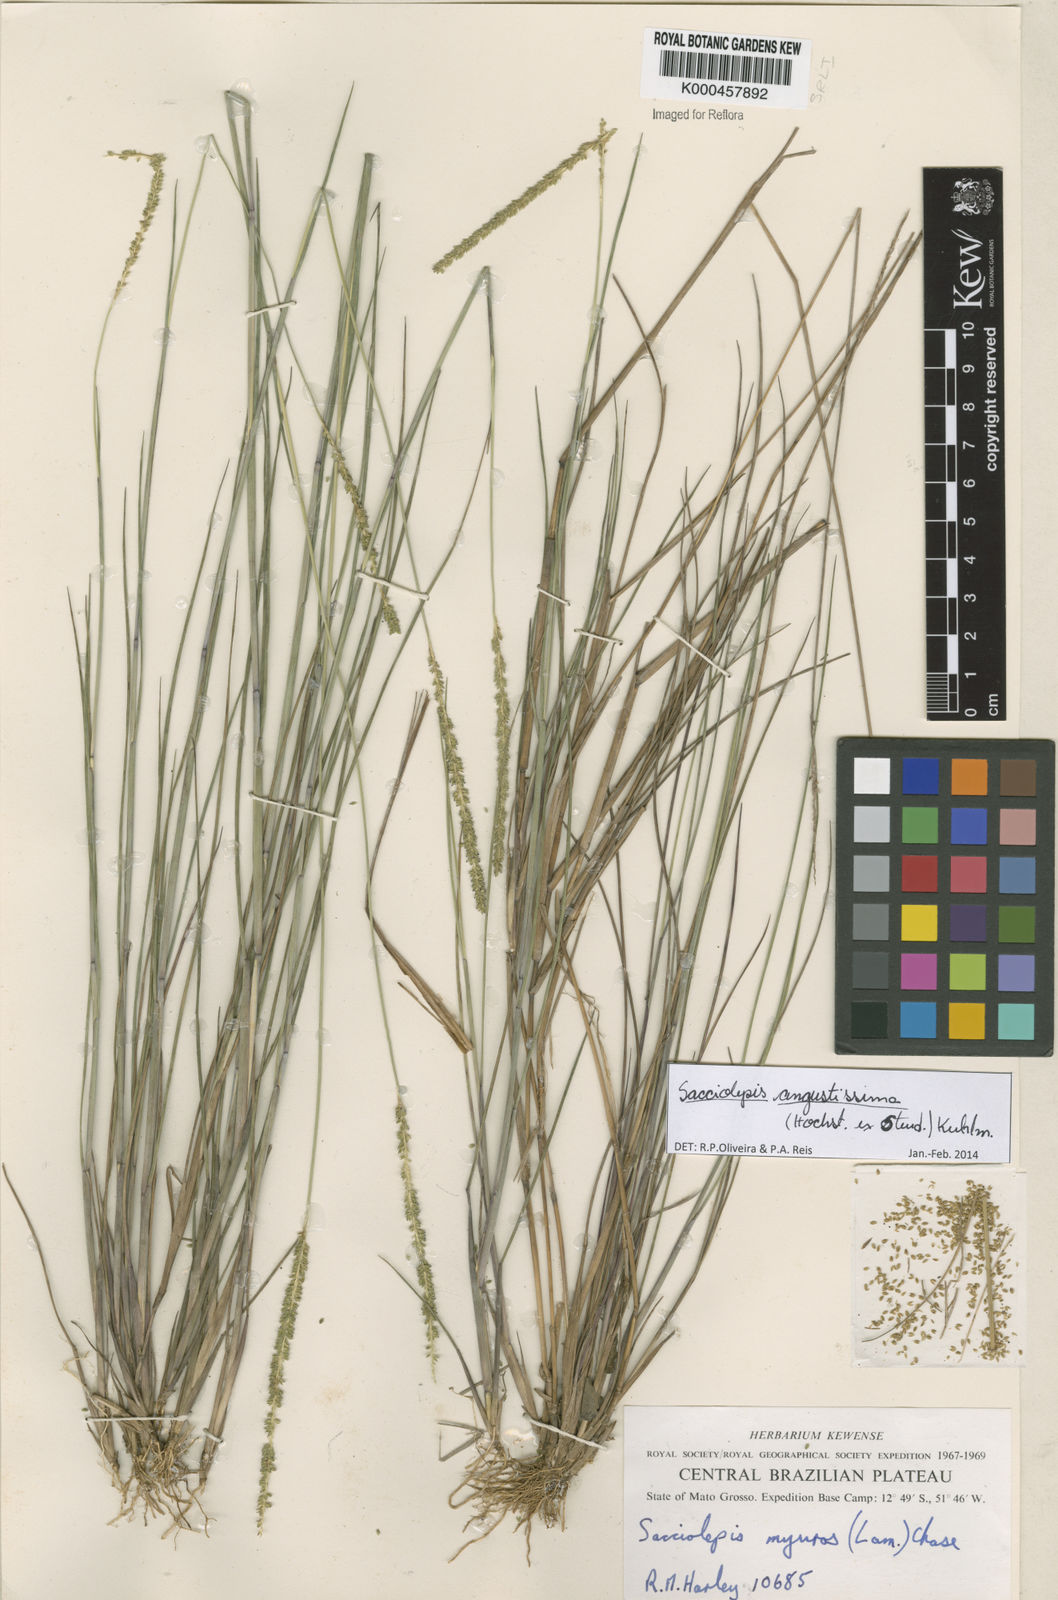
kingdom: Plantae
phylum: Tracheophyta
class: Liliopsida
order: Poales
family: Poaceae
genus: Sacciolepis
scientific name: Sacciolepis angustissima
